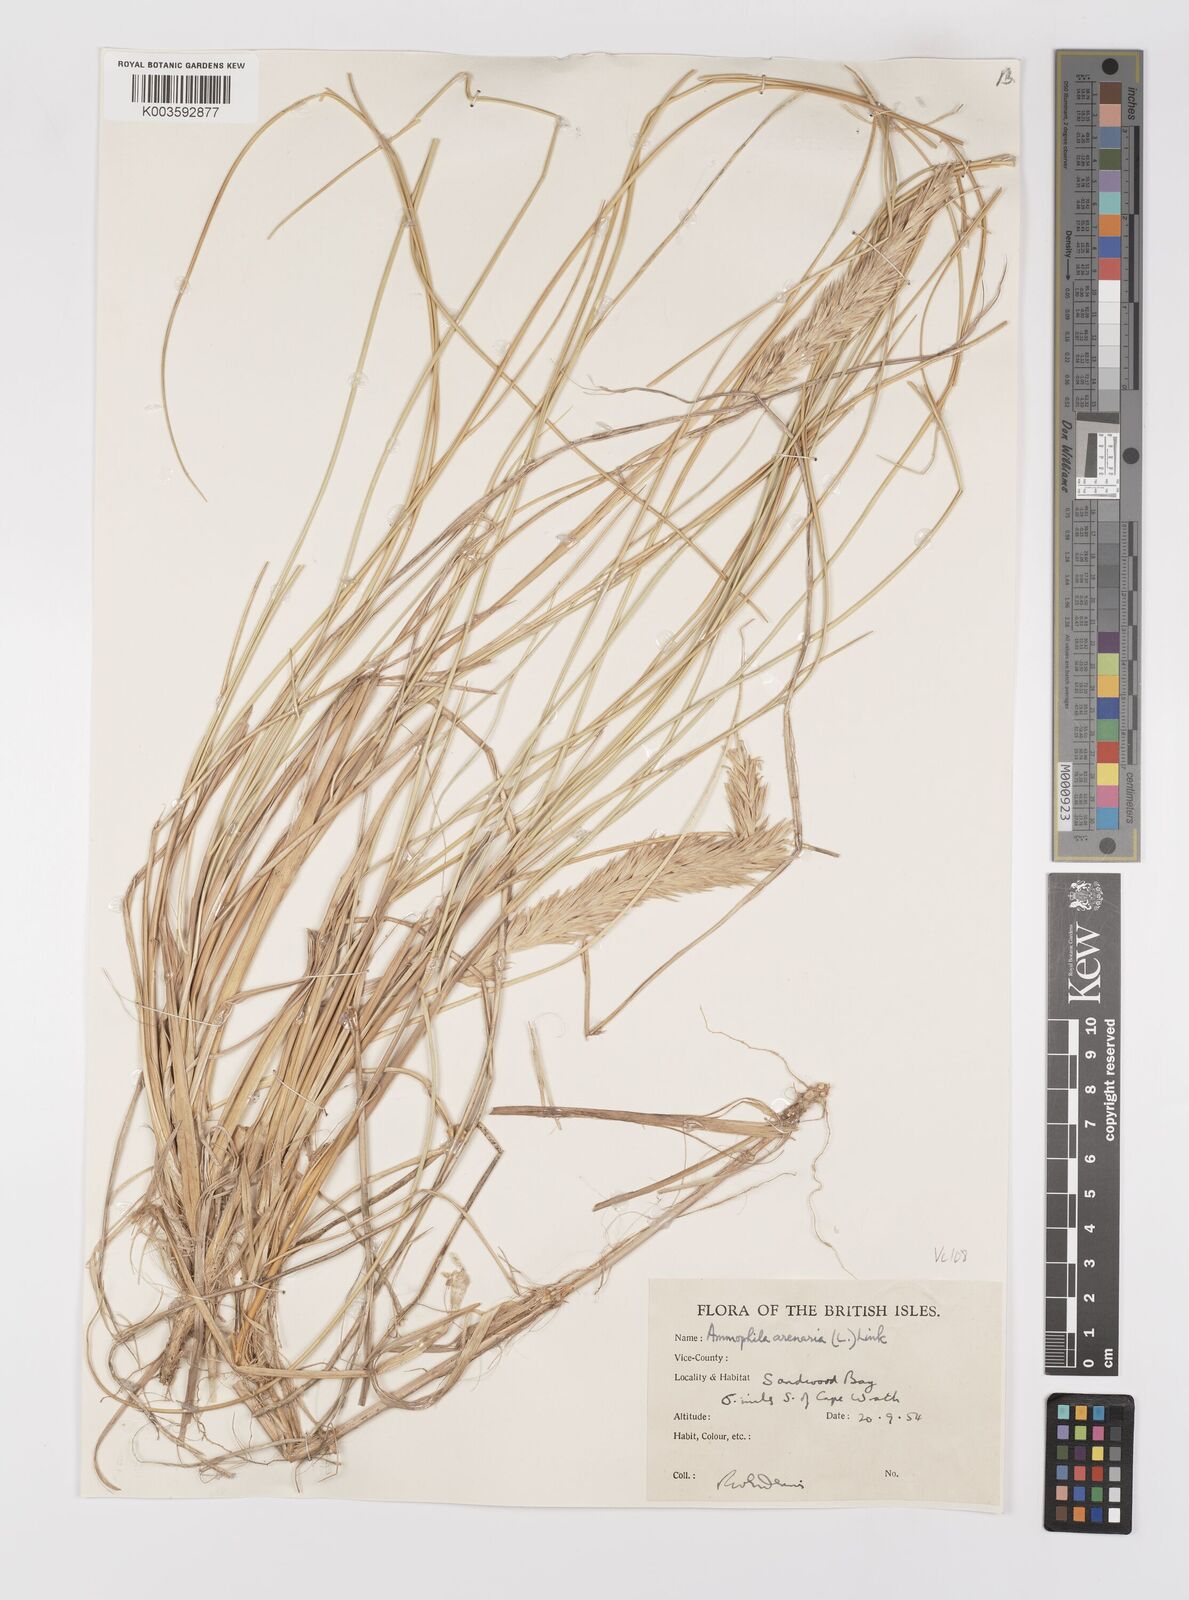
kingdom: Plantae
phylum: Tracheophyta
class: Liliopsida
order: Poales
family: Poaceae
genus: Calamagrostis
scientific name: Calamagrostis arenaria
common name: European beachgrass
